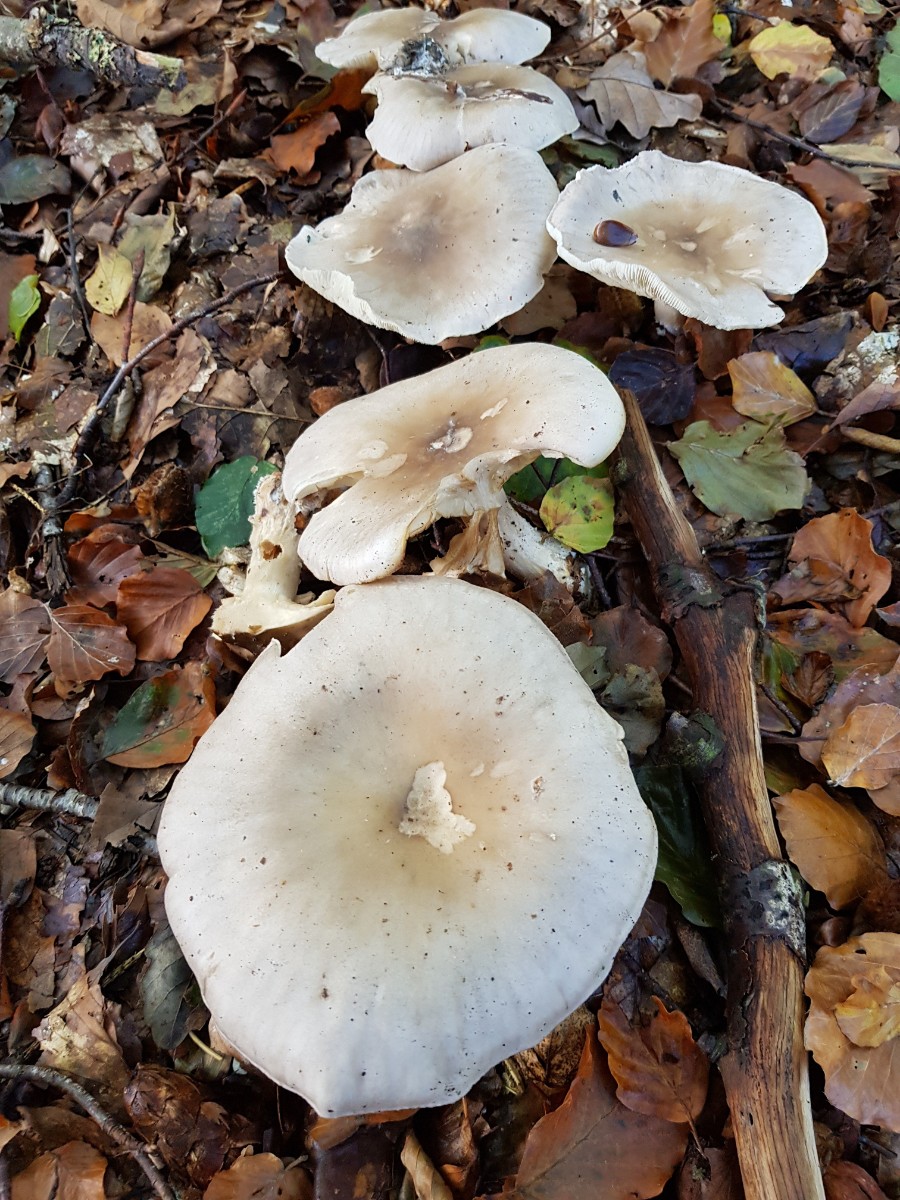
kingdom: Fungi
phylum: Basidiomycota
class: Agaricomycetes
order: Agaricales
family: Tricholomataceae
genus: Clitocybe
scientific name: Clitocybe nebularis
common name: tåge-tragthat
